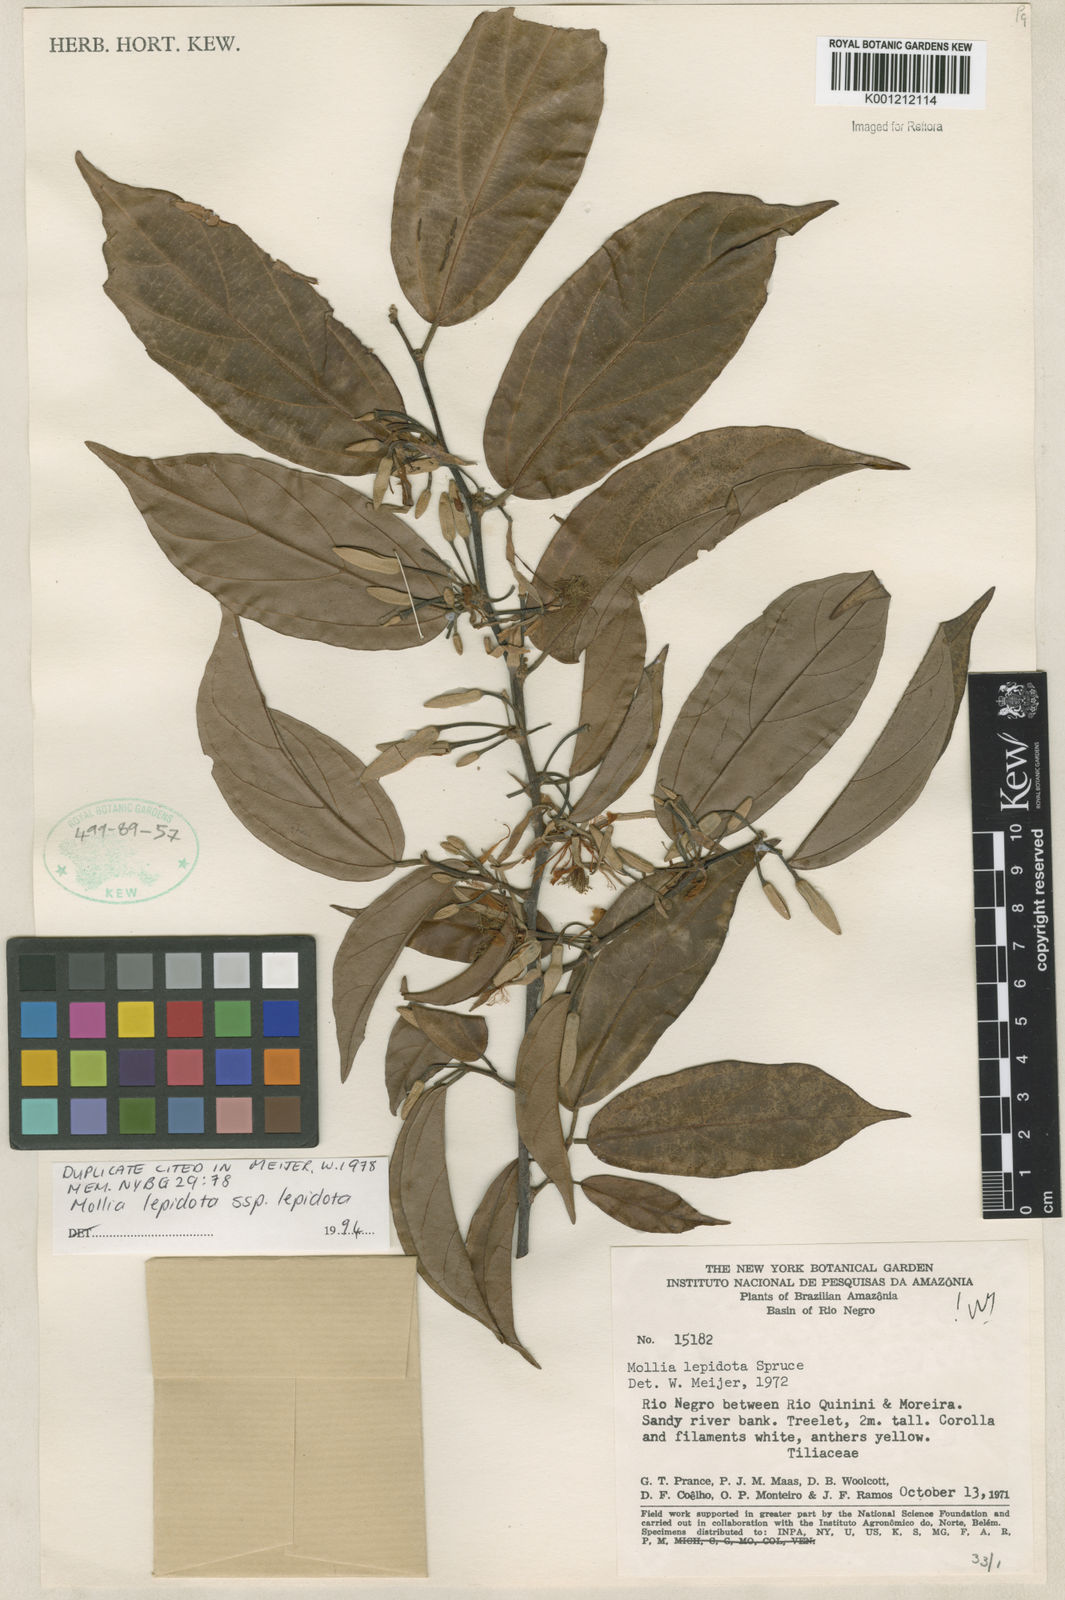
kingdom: Plantae
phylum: Tracheophyta
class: Magnoliopsida
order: Malvales
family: Malvaceae
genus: Mollia
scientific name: Mollia lepidota
